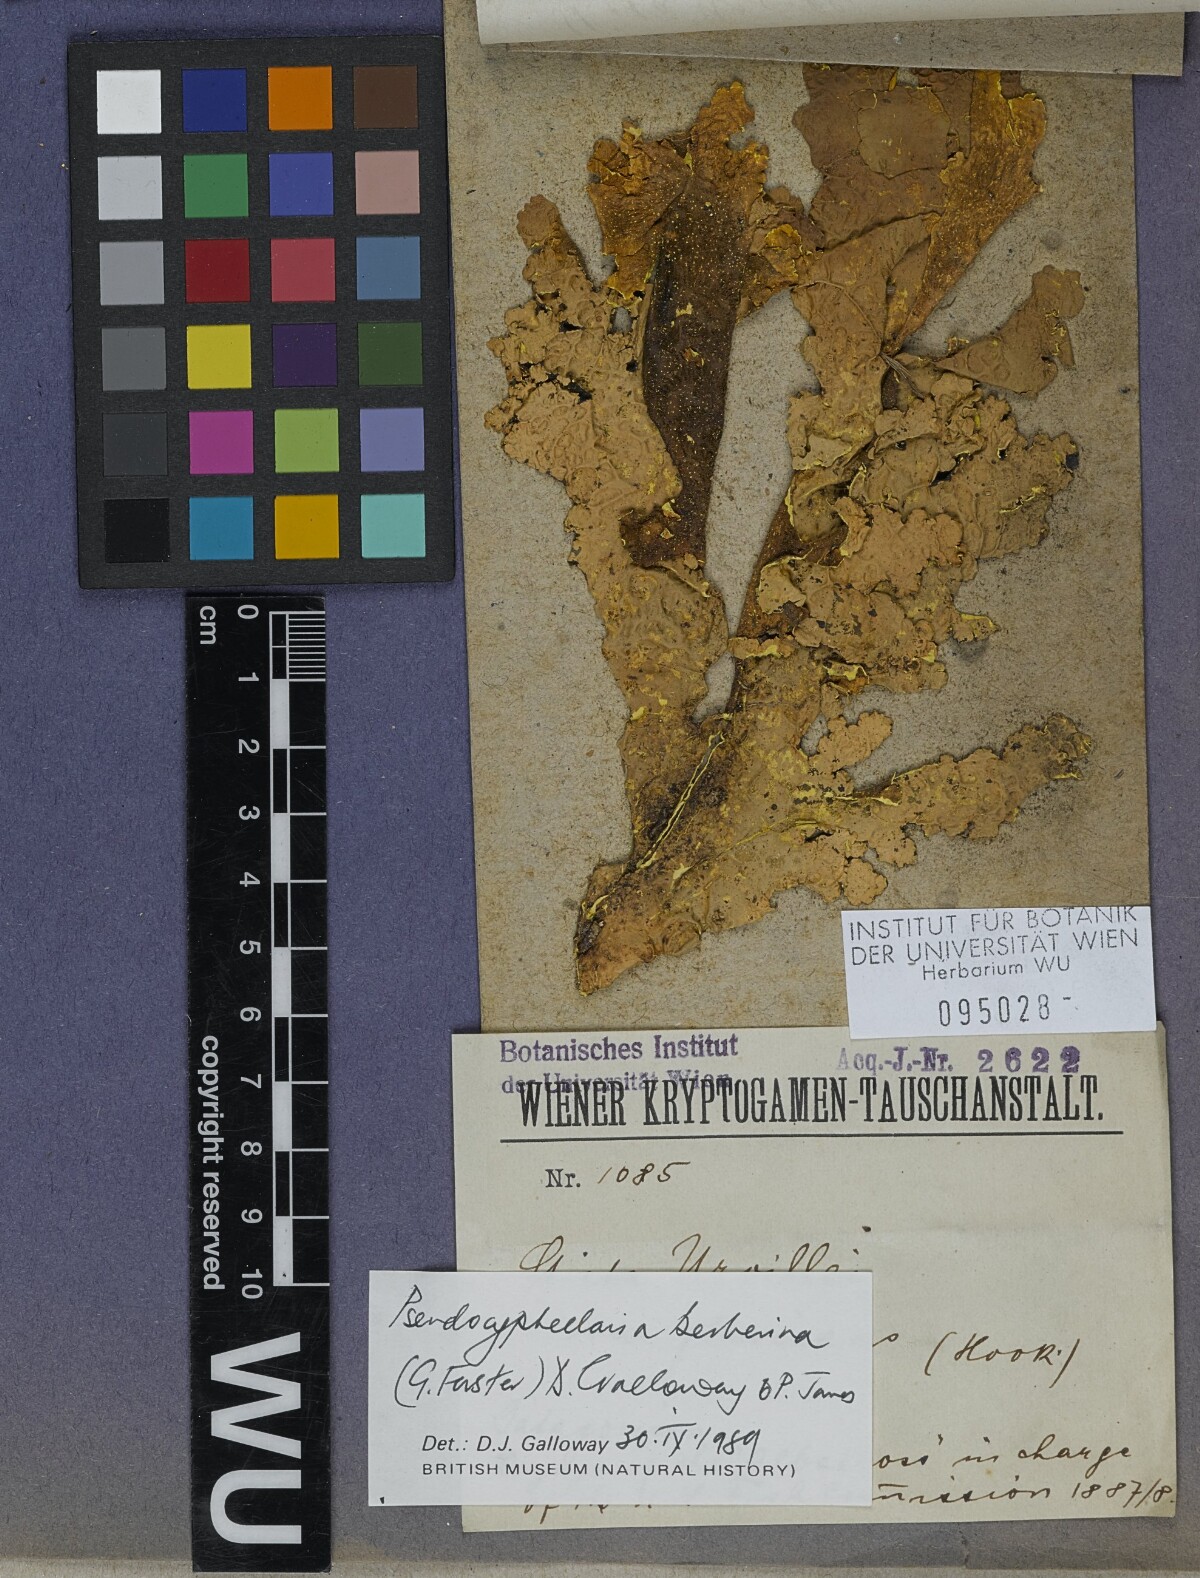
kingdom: Fungi
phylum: Ascomycota
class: Lecanoromycetes
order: Peltigerales
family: Lobariaceae
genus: Podostictina
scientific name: Podostictina berberina
